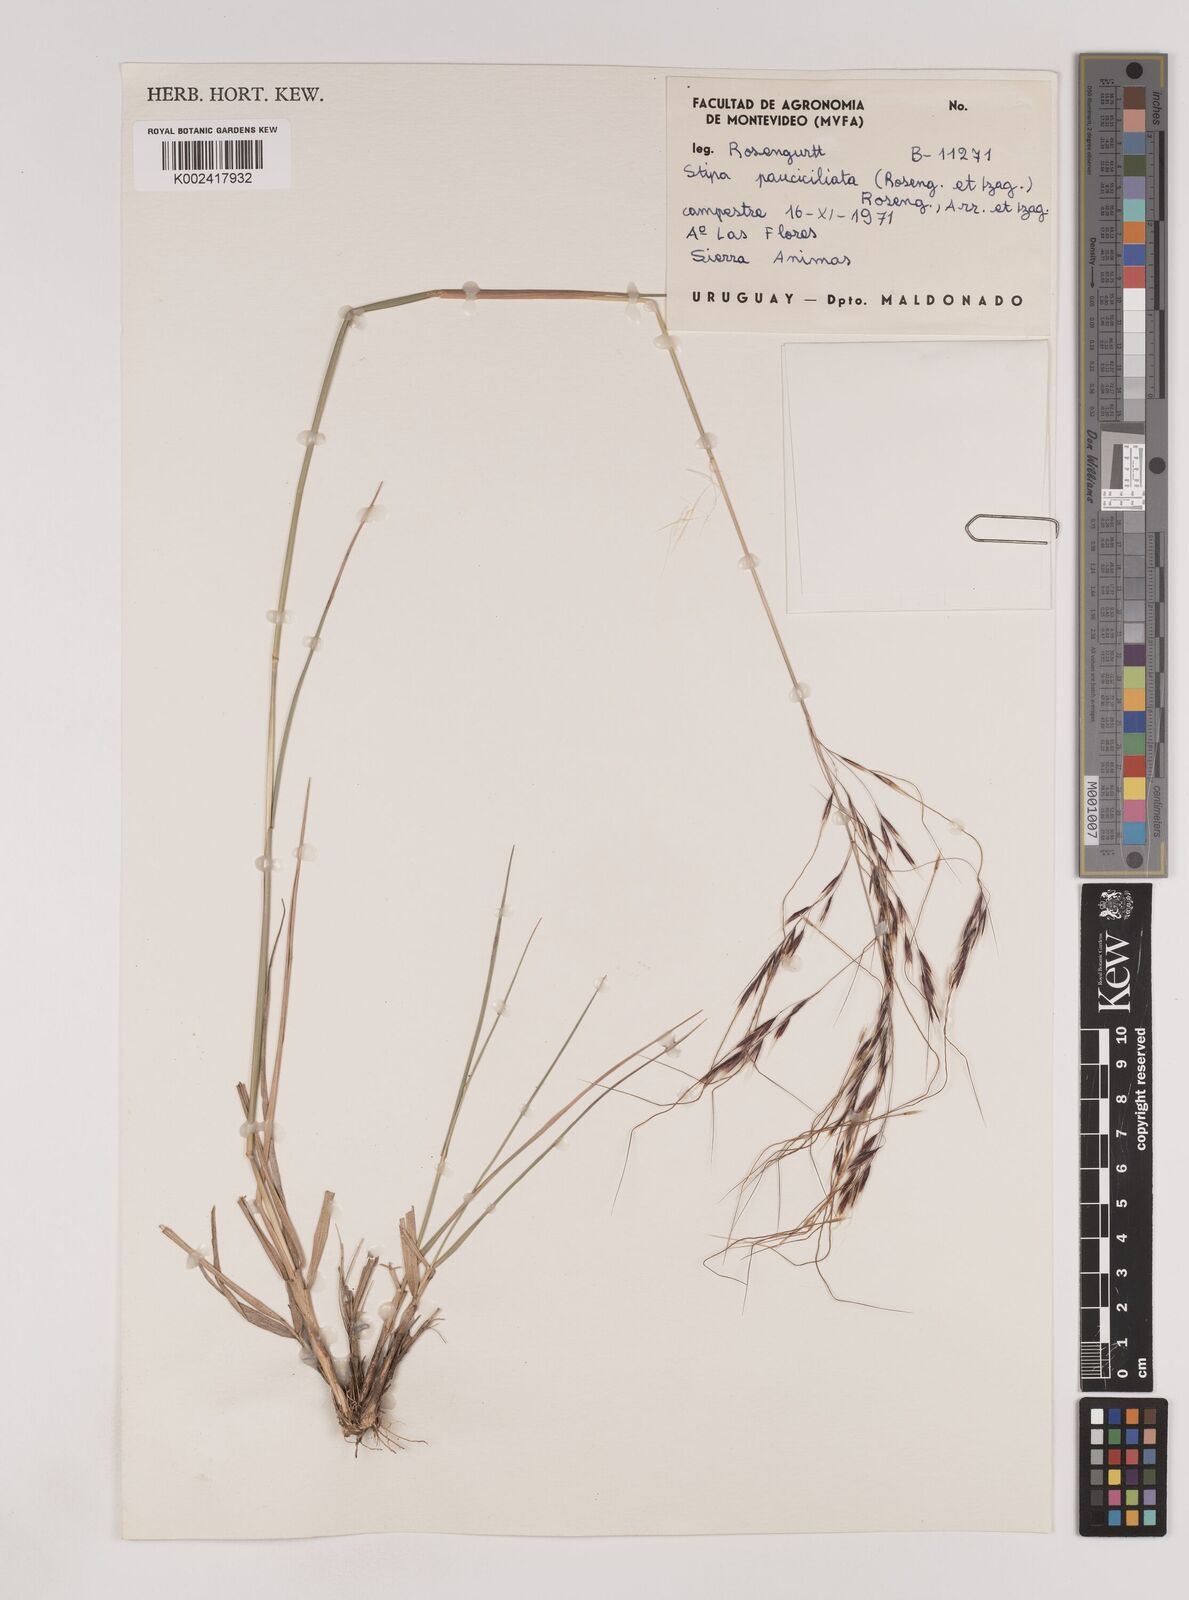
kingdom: Plantae
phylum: Tracheophyta
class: Liliopsida
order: Poales
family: Poaceae
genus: Nassella
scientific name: Nassella pauciciliata
